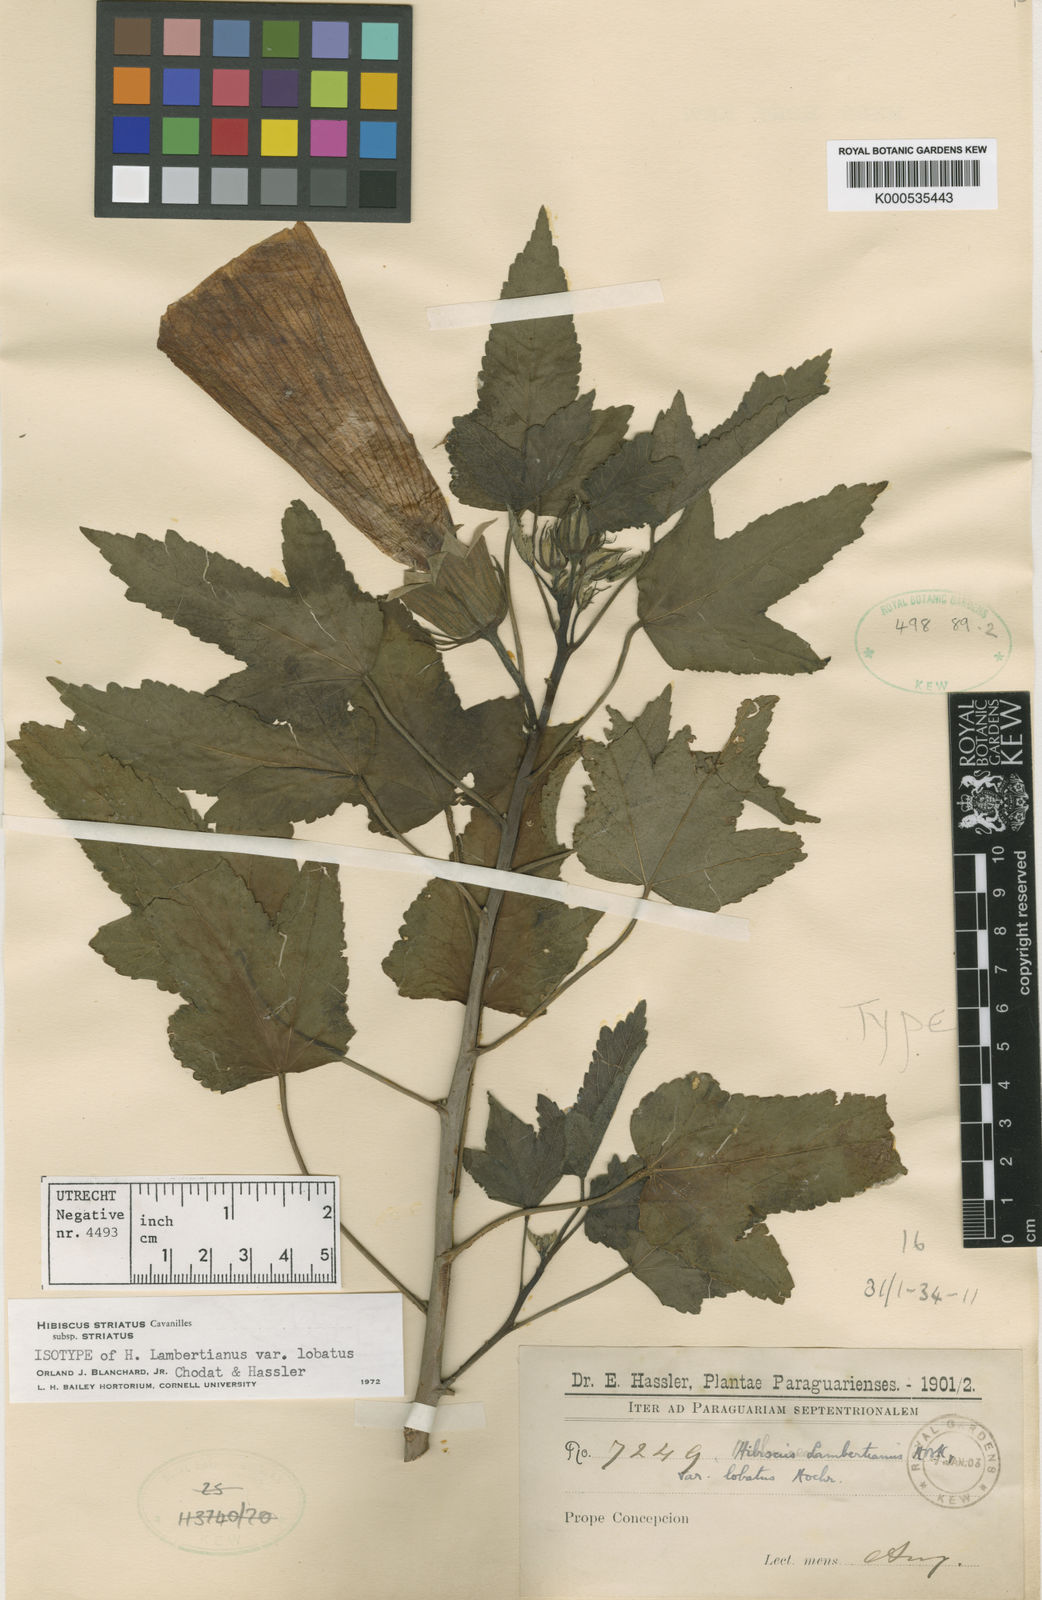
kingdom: Plantae
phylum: Tracheophyta
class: Magnoliopsida
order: Malvales
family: Malvaceae
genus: Hibiscus
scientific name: Hibiscus striatus
